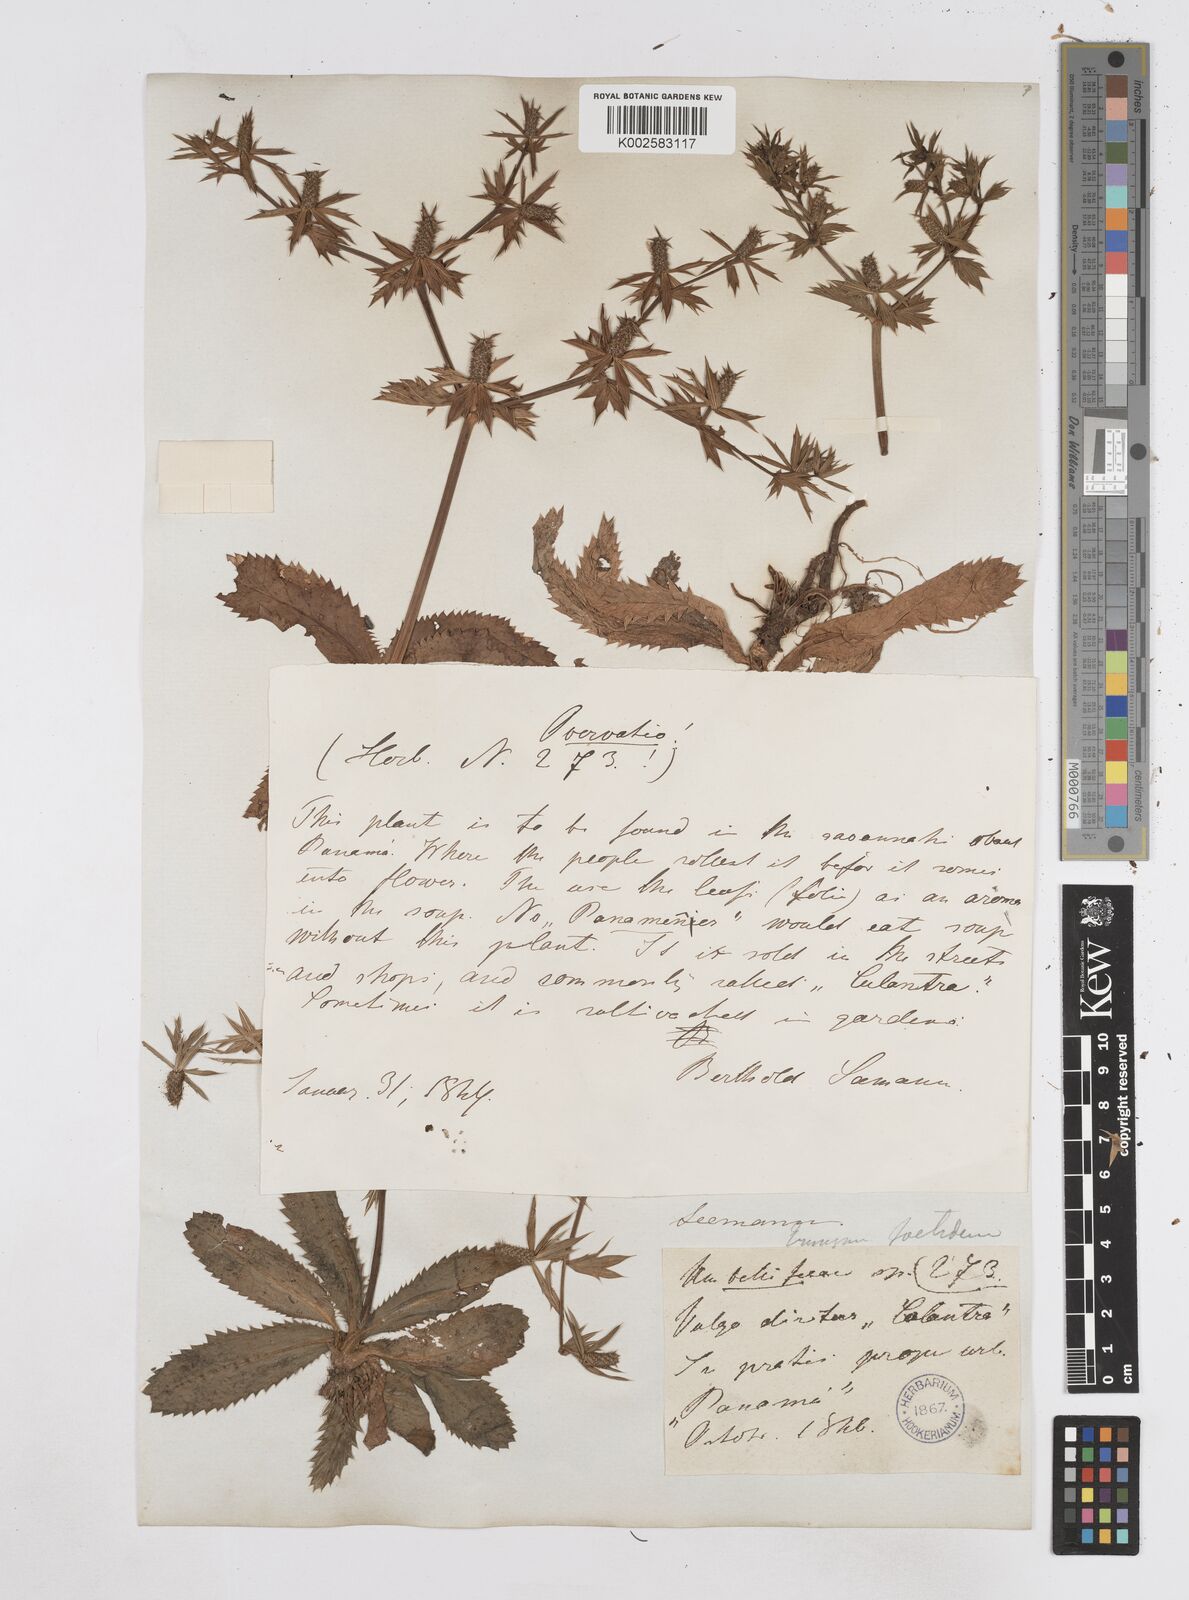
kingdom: Plantae
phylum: Tracheophyta
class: Magnoliopsida
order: Apiales
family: Apiaceae
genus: Eryngium
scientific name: Eryngium foetidum
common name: Fitweed
